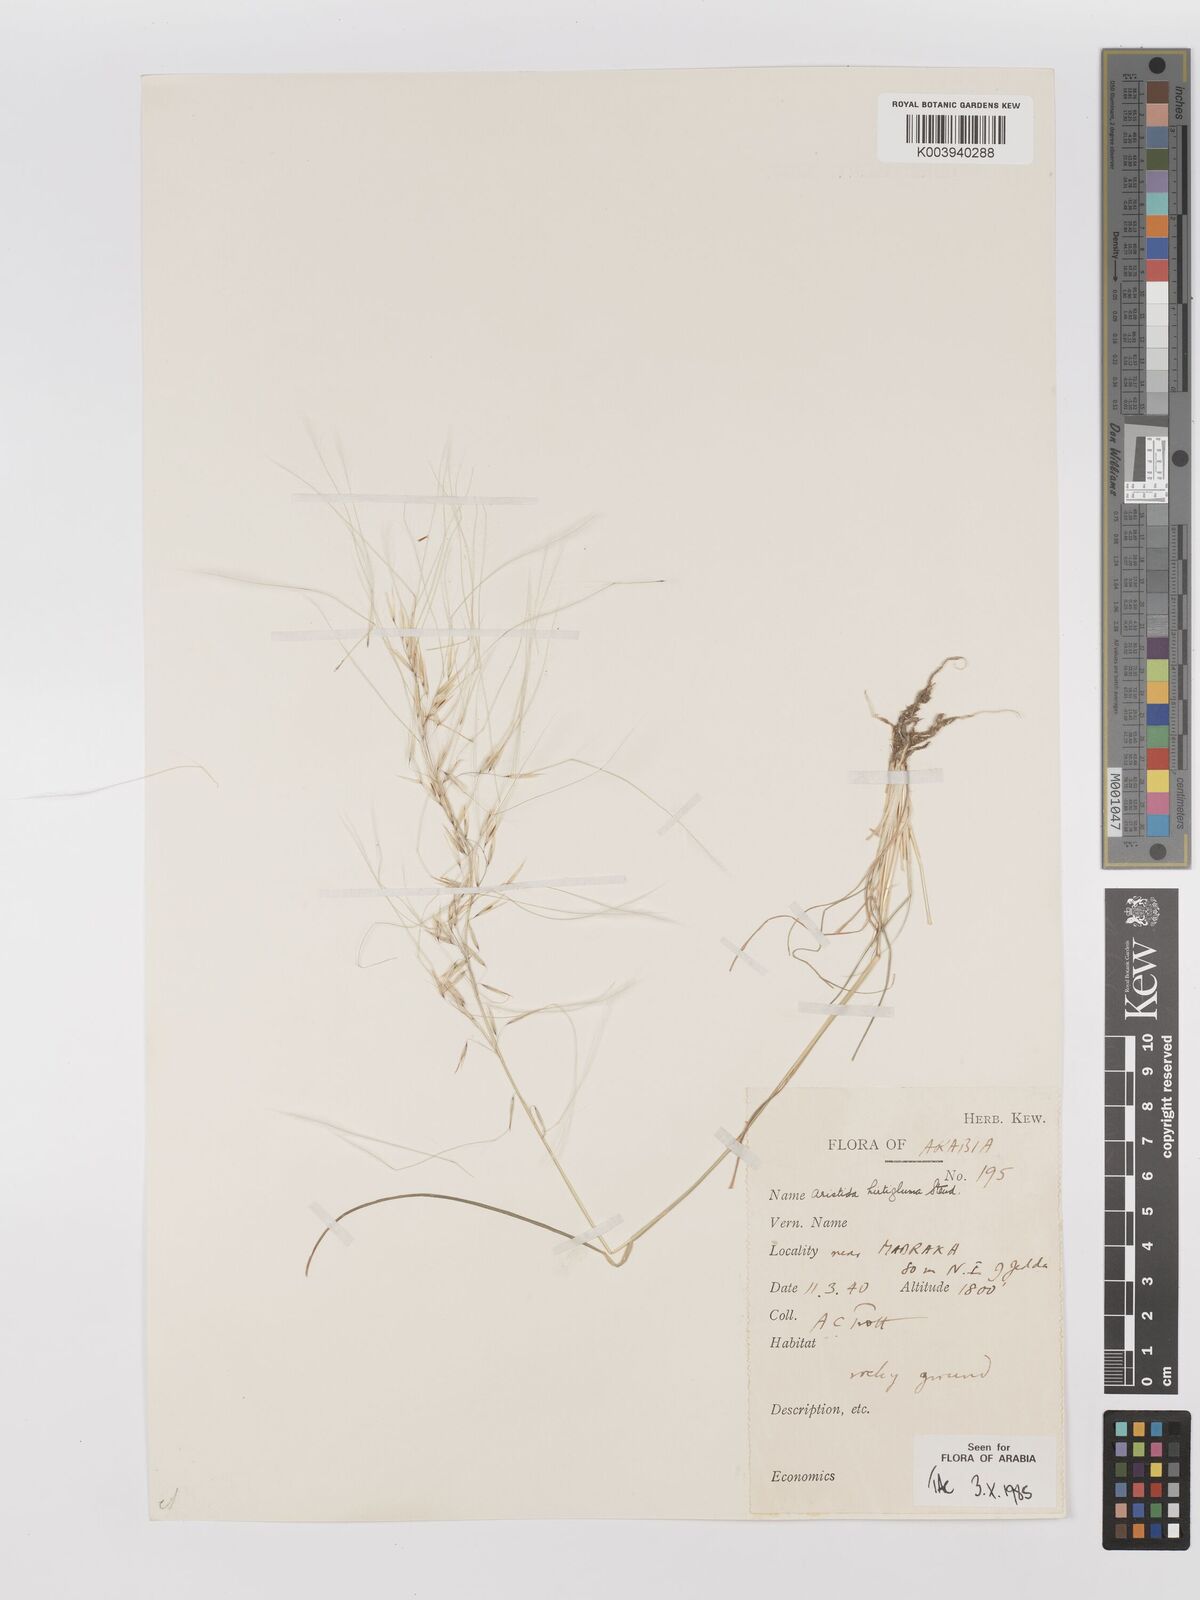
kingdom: Plantae
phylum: Tracheophyta
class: Liliopsida
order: Poales
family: Poaceae
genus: Stipagrostis
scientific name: Stipagrostis hirtigluma
